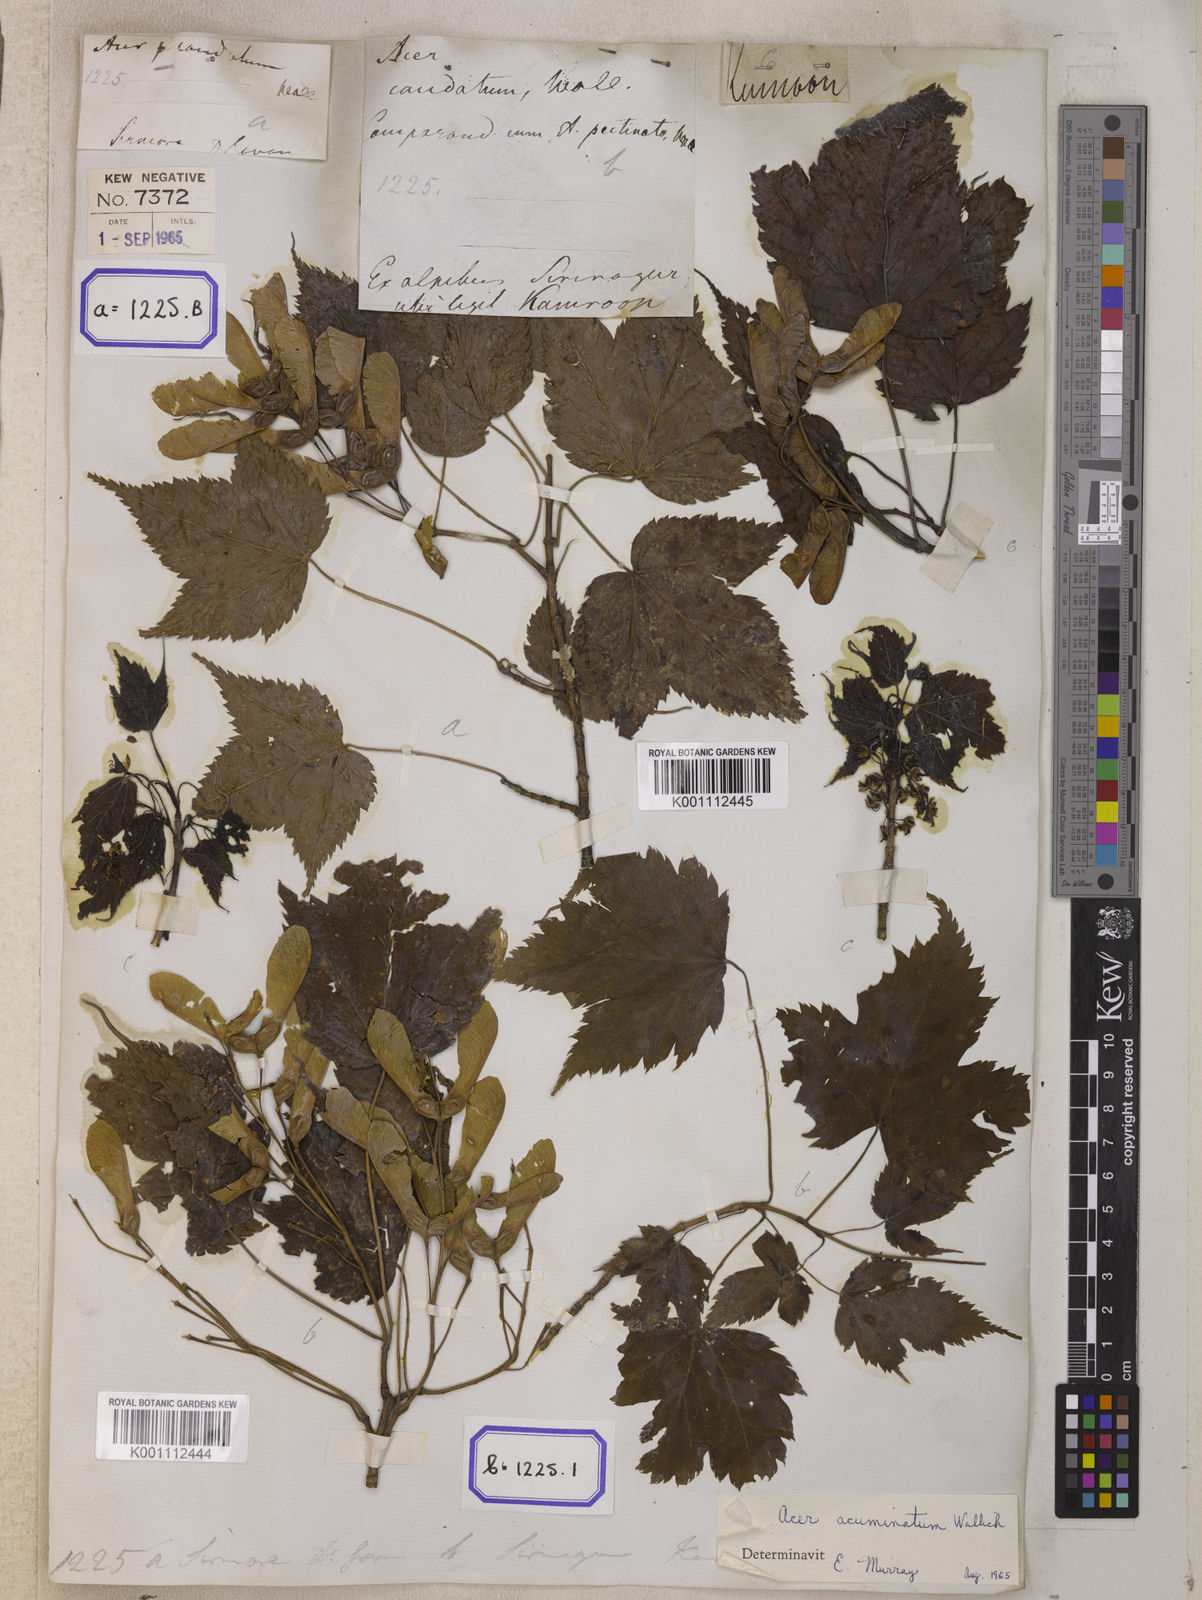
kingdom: Plantae
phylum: Tracheophyta
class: Magnoliopsida
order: Sapindales
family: Sapindaceae
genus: Acer
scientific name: Acer caudatum
